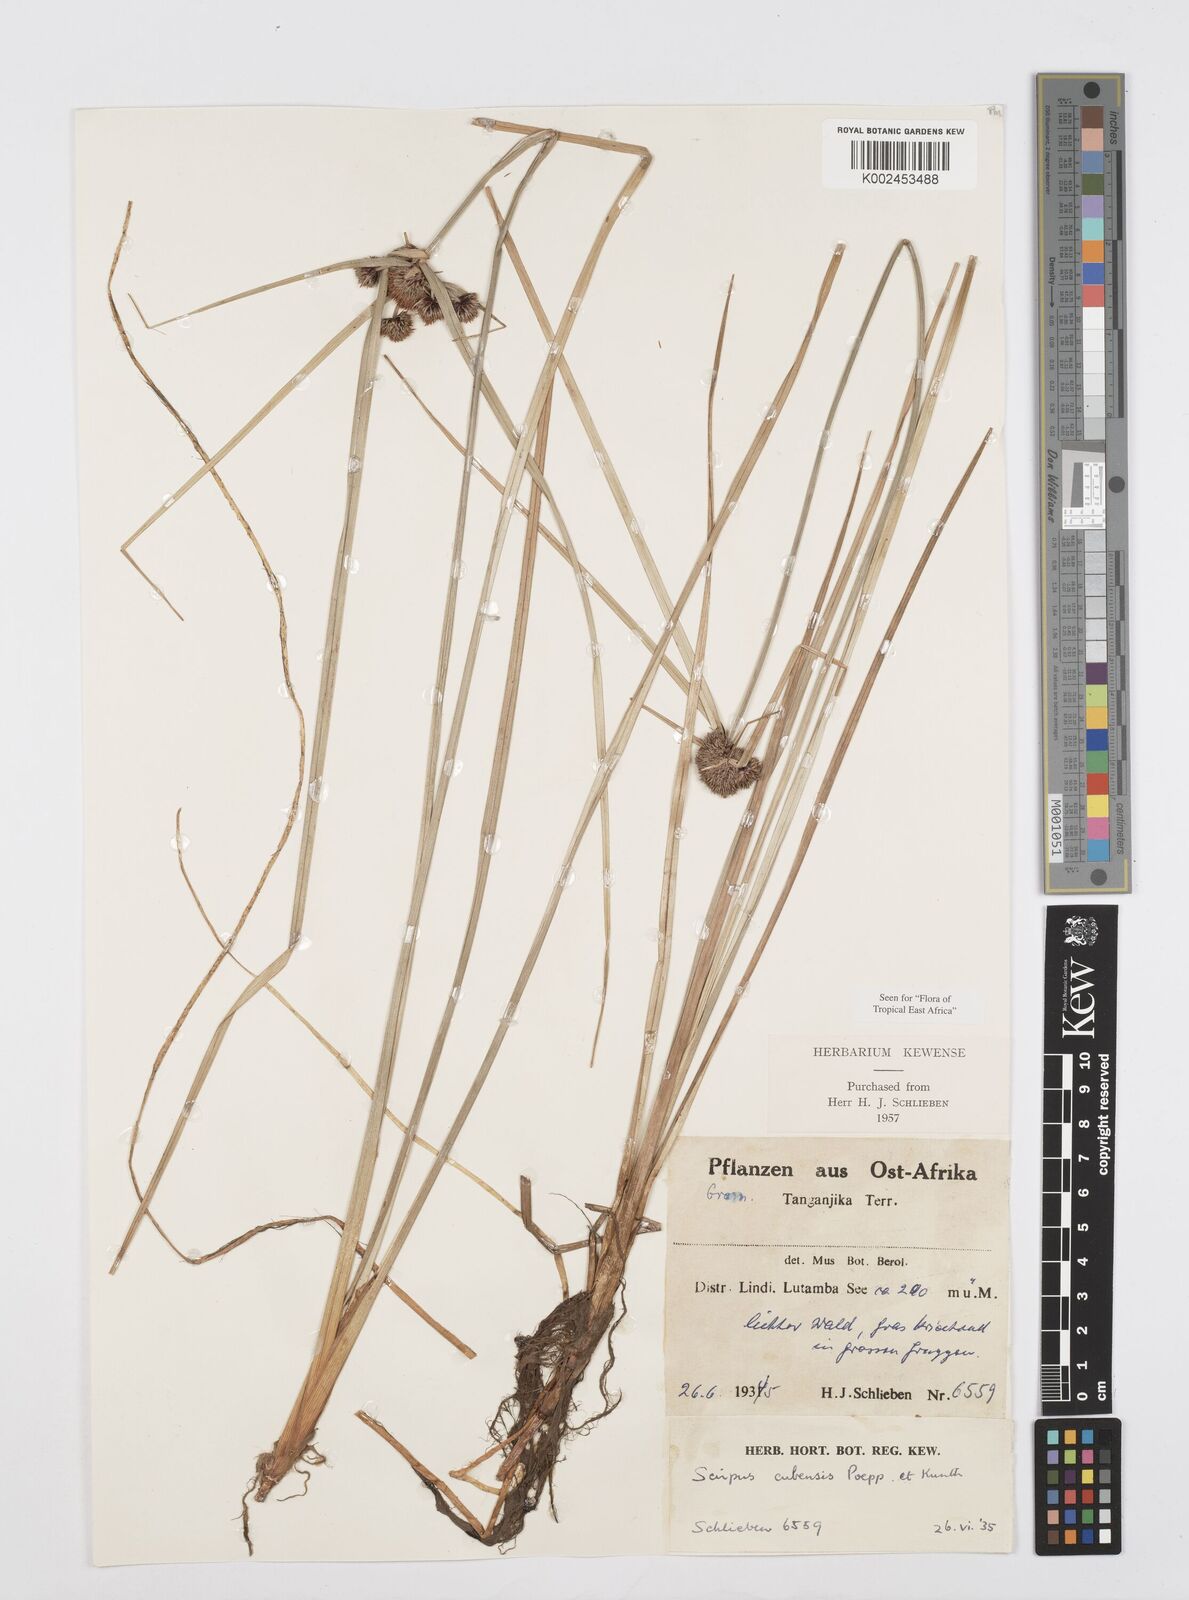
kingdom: Plantae
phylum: Tracheophyta
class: Liliopsida
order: Poales
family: Cyperaceae
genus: Cyperus
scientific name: Cyperus elegans
